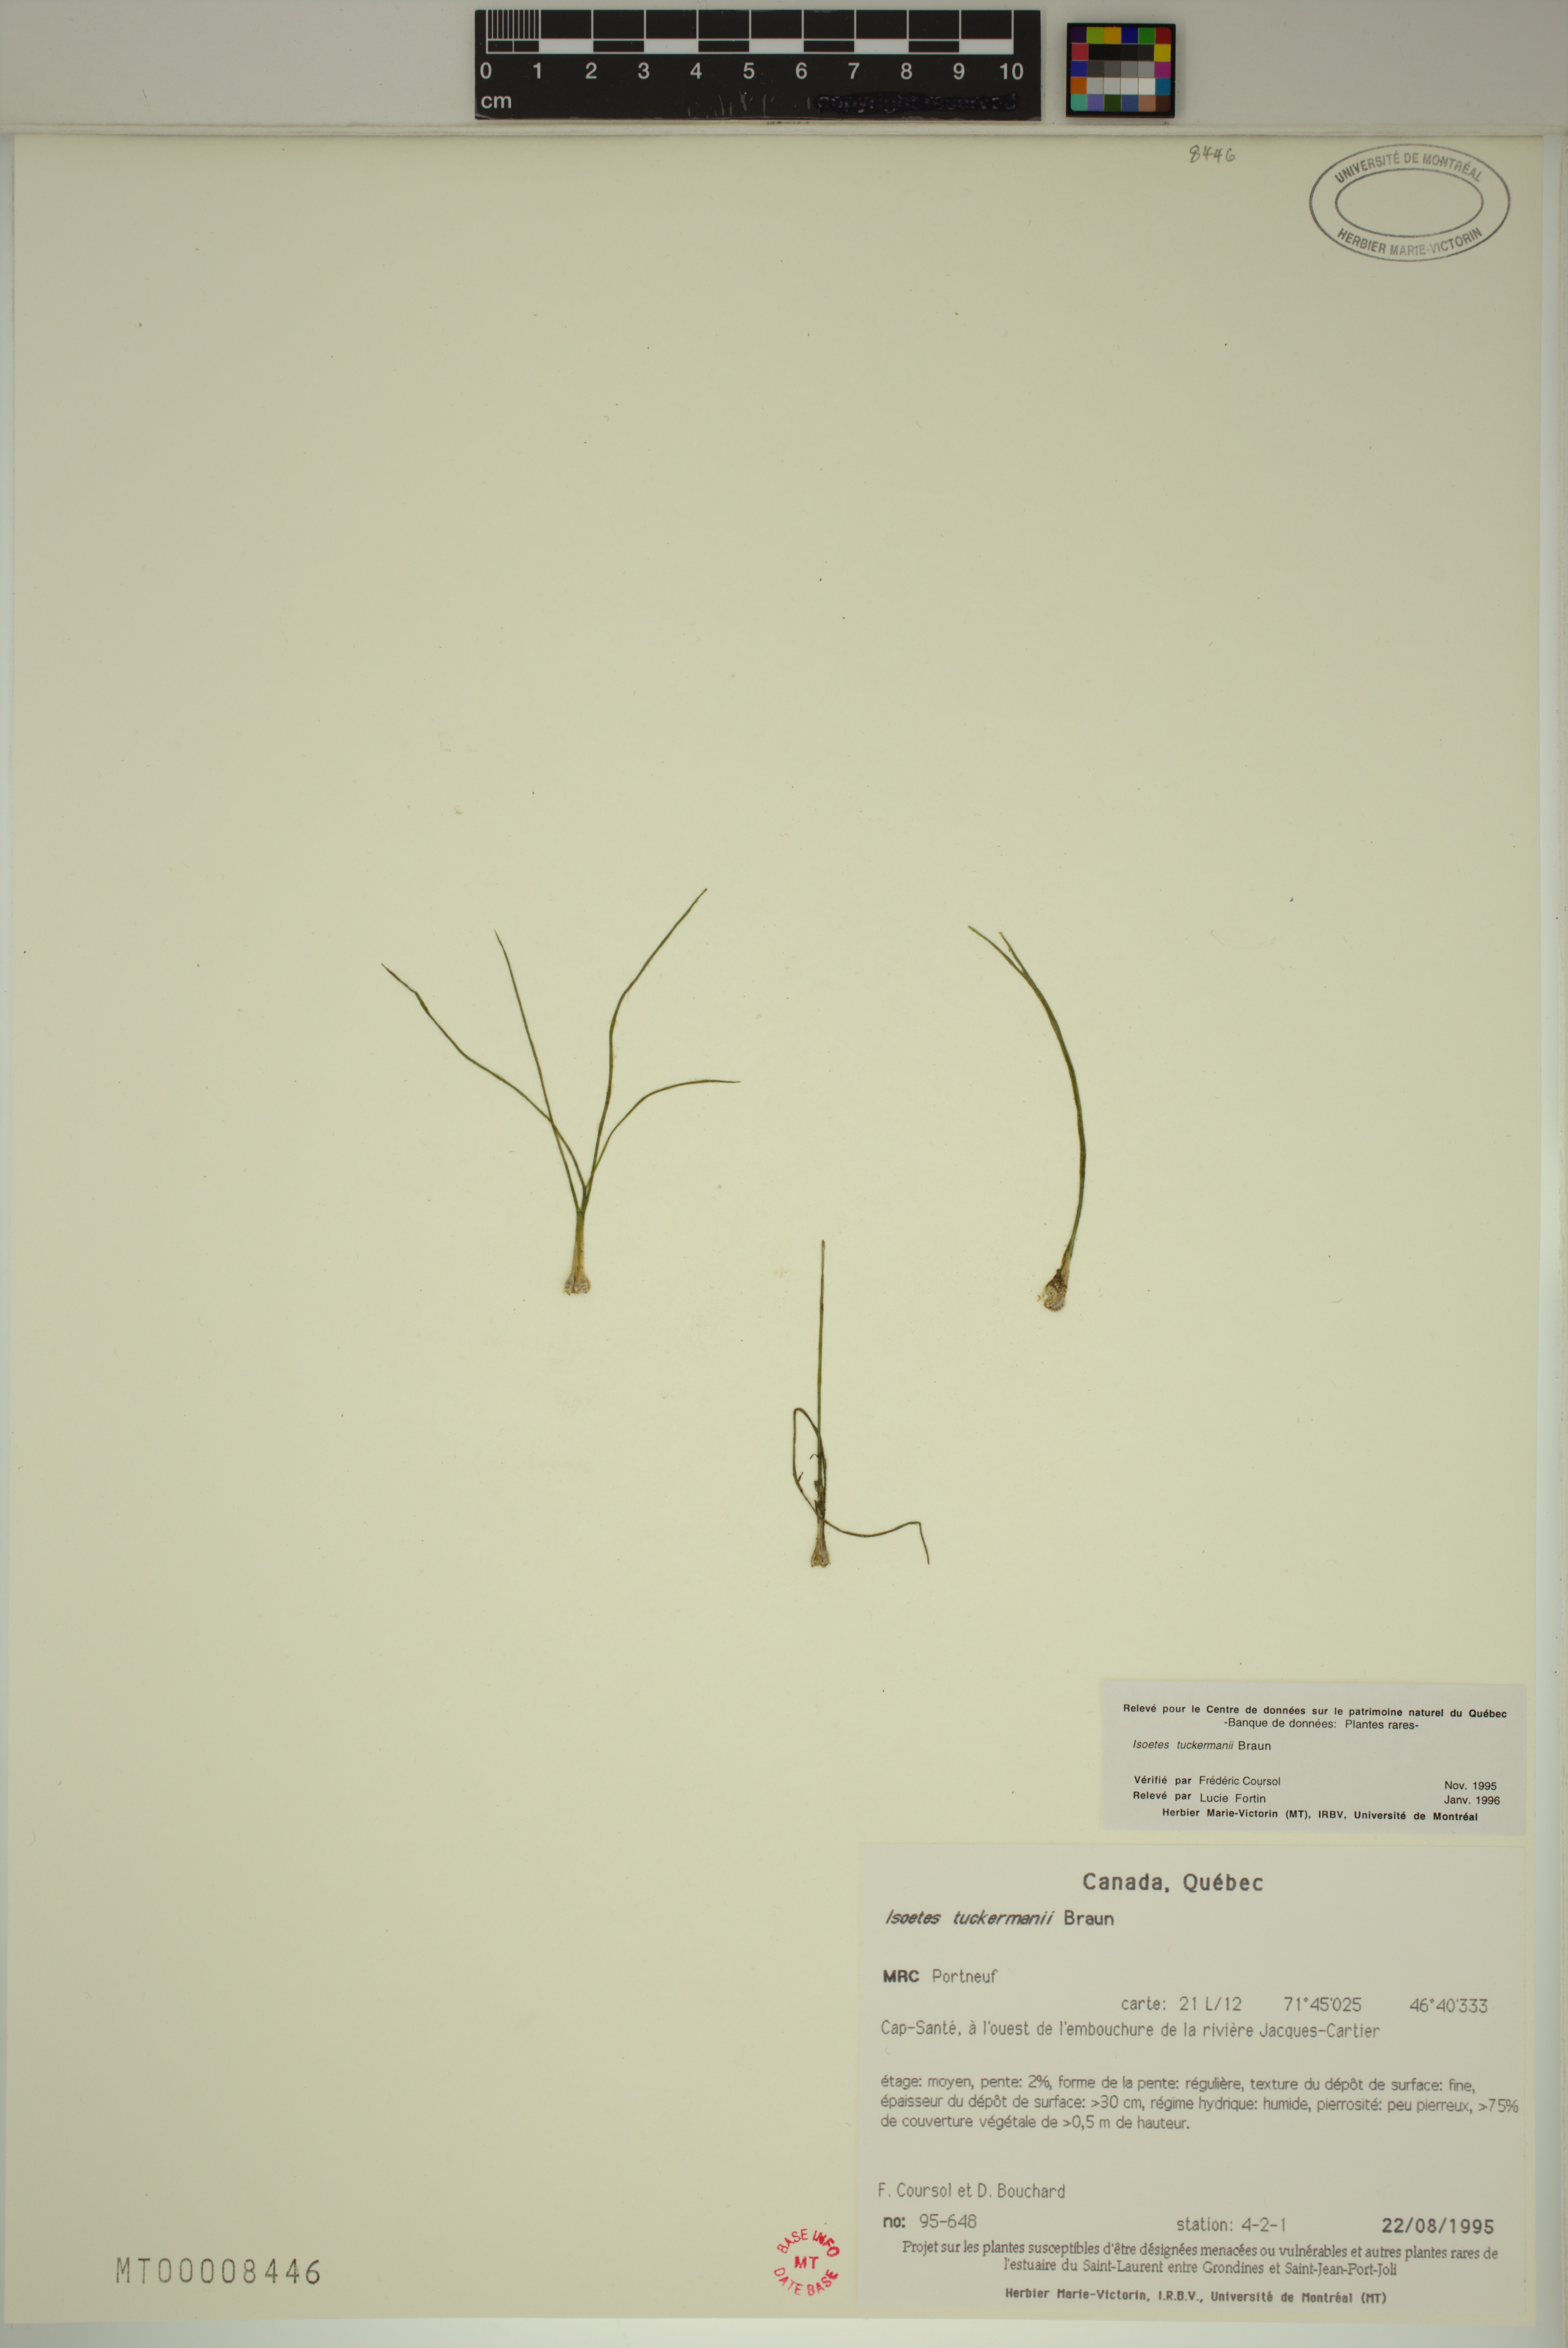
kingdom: Plantae
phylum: Tracheophyta
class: Lycopodiopsida
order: Isoetales
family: Isoetaceae
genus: Isoetes
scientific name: Isoetes laurentiana
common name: St. lawrence quillwort
